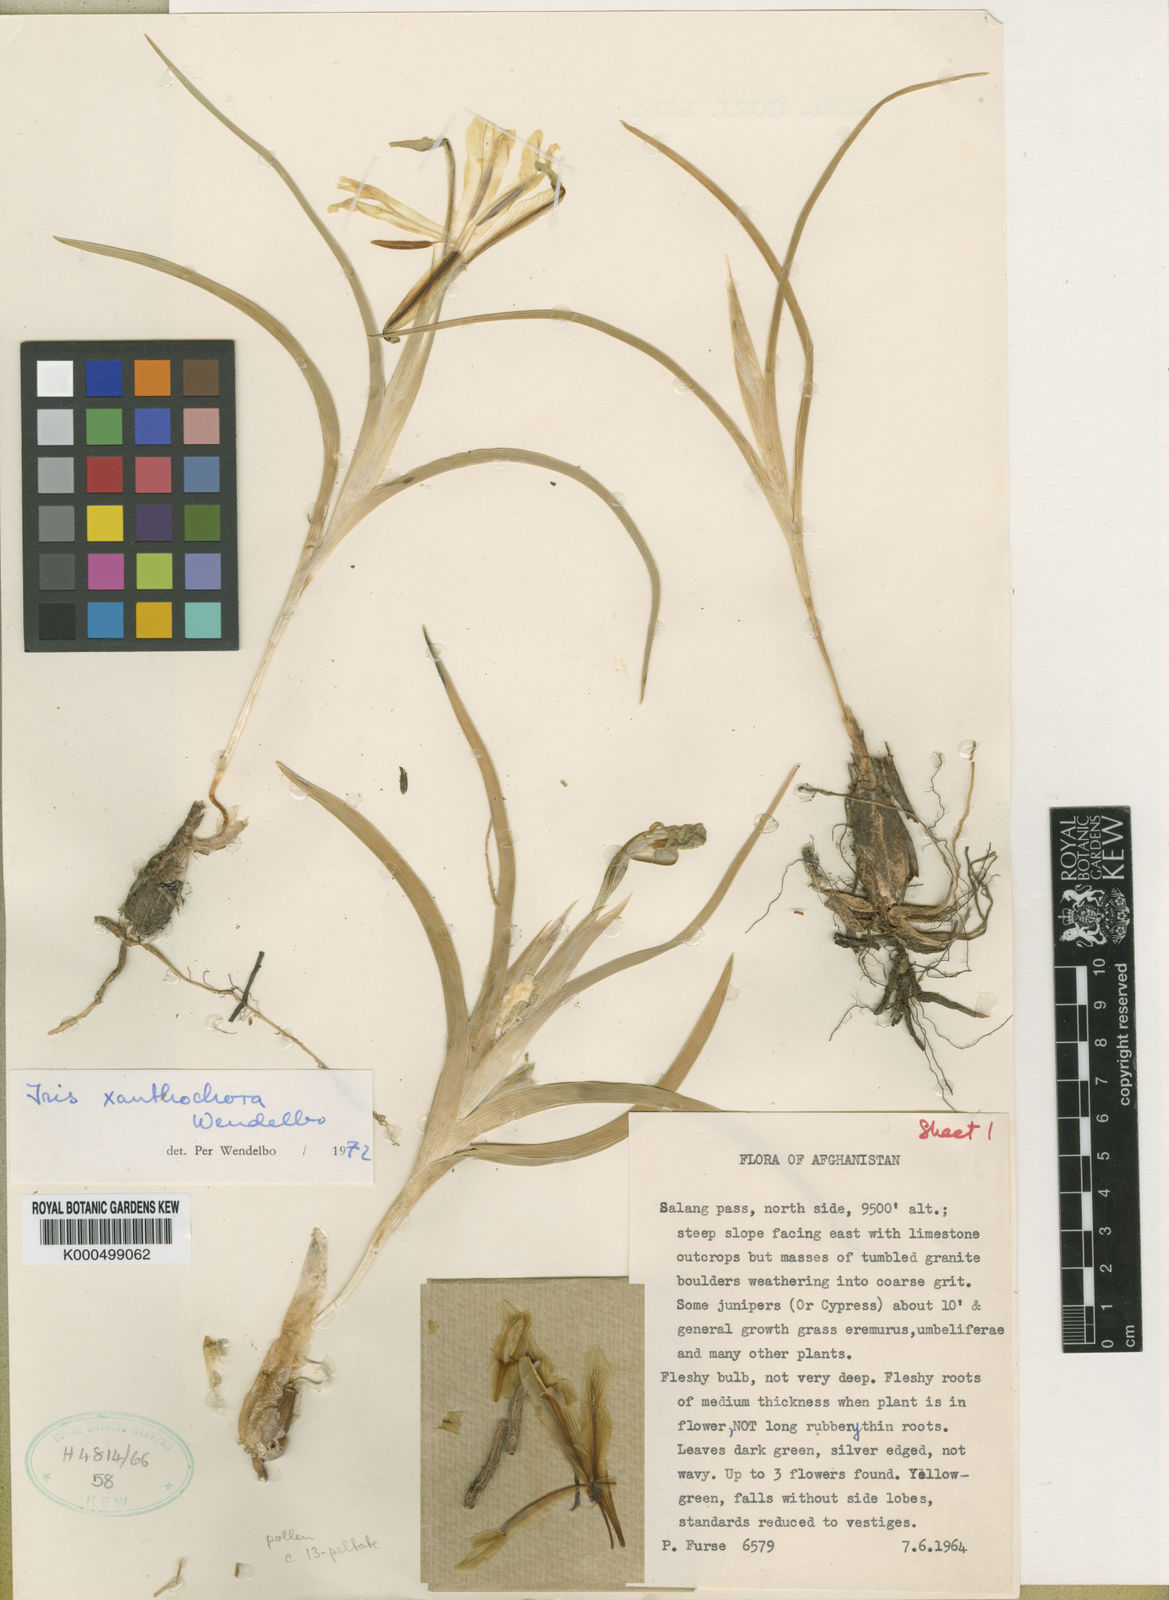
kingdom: Plantae
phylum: Tracheophyta
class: Liliopsida
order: Asparagales
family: Iridaceae
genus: Iris
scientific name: Iris xanthochlora
